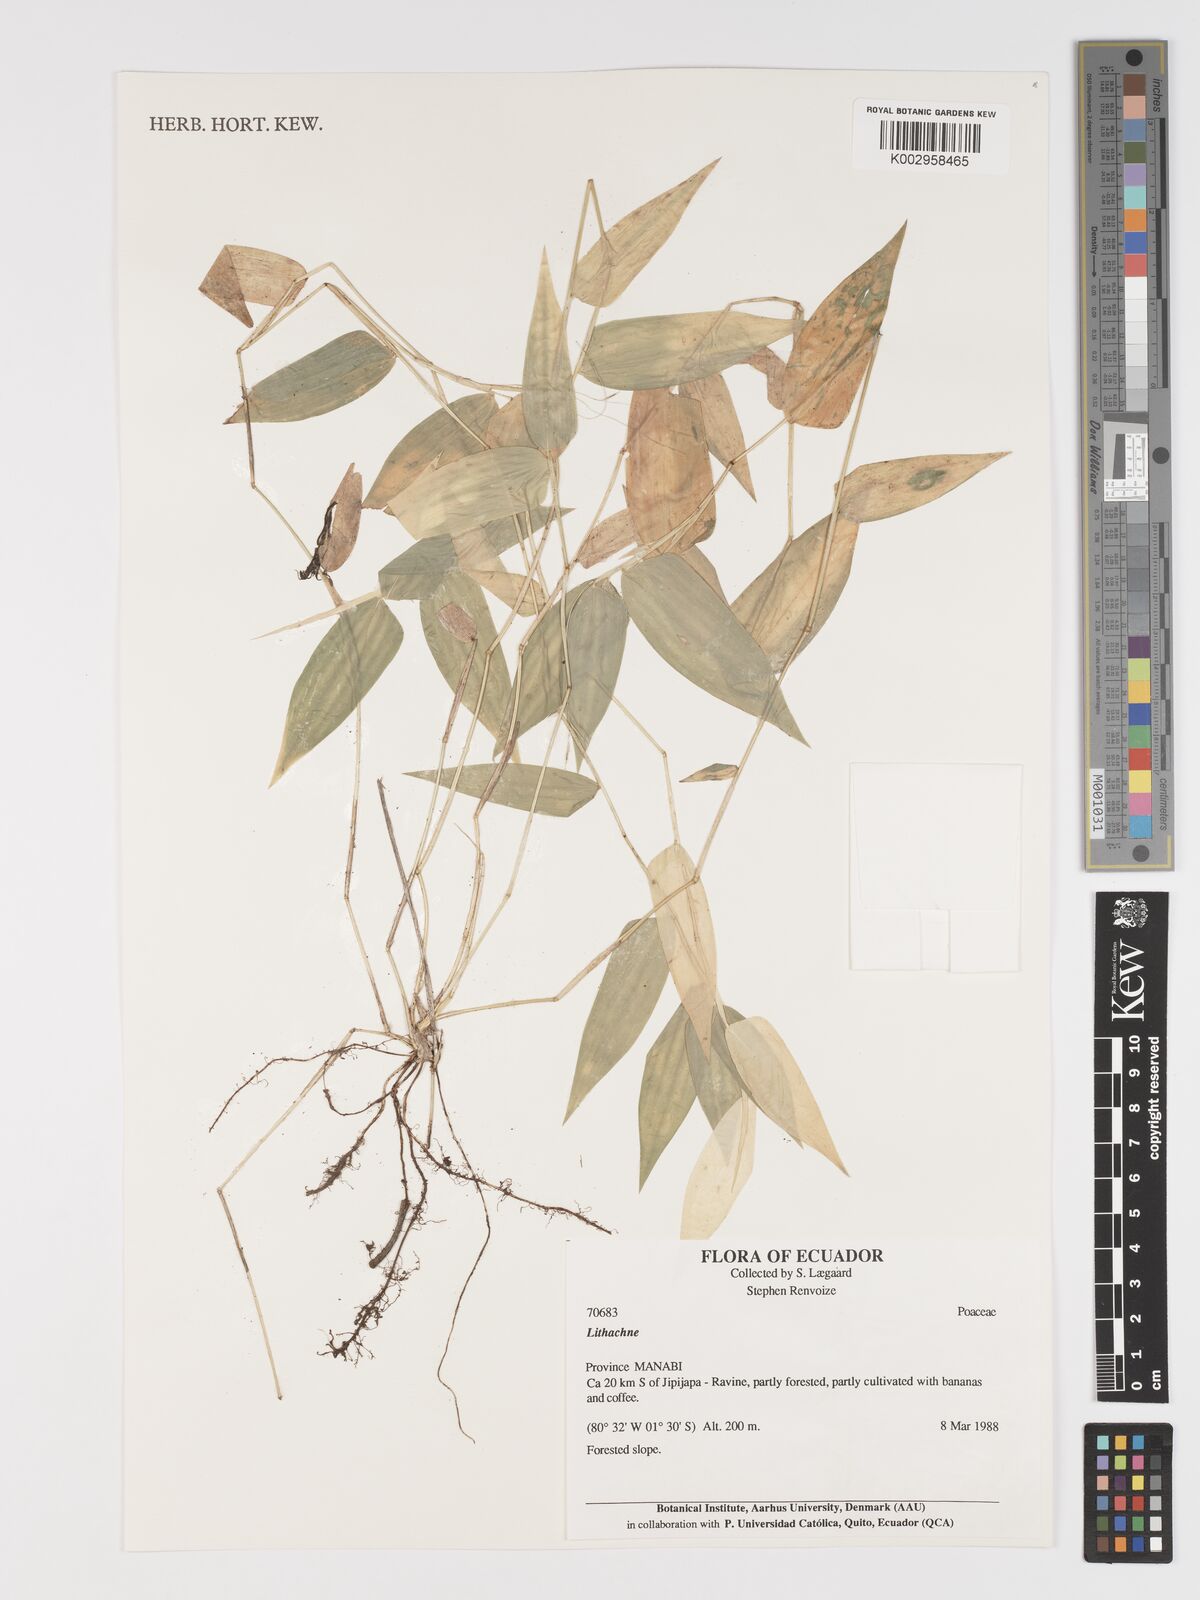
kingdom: Plantae
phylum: Tracheophyta
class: Liliopsida
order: Poales
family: Poaceae
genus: Lithachne
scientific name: Lithachne pauciflora
